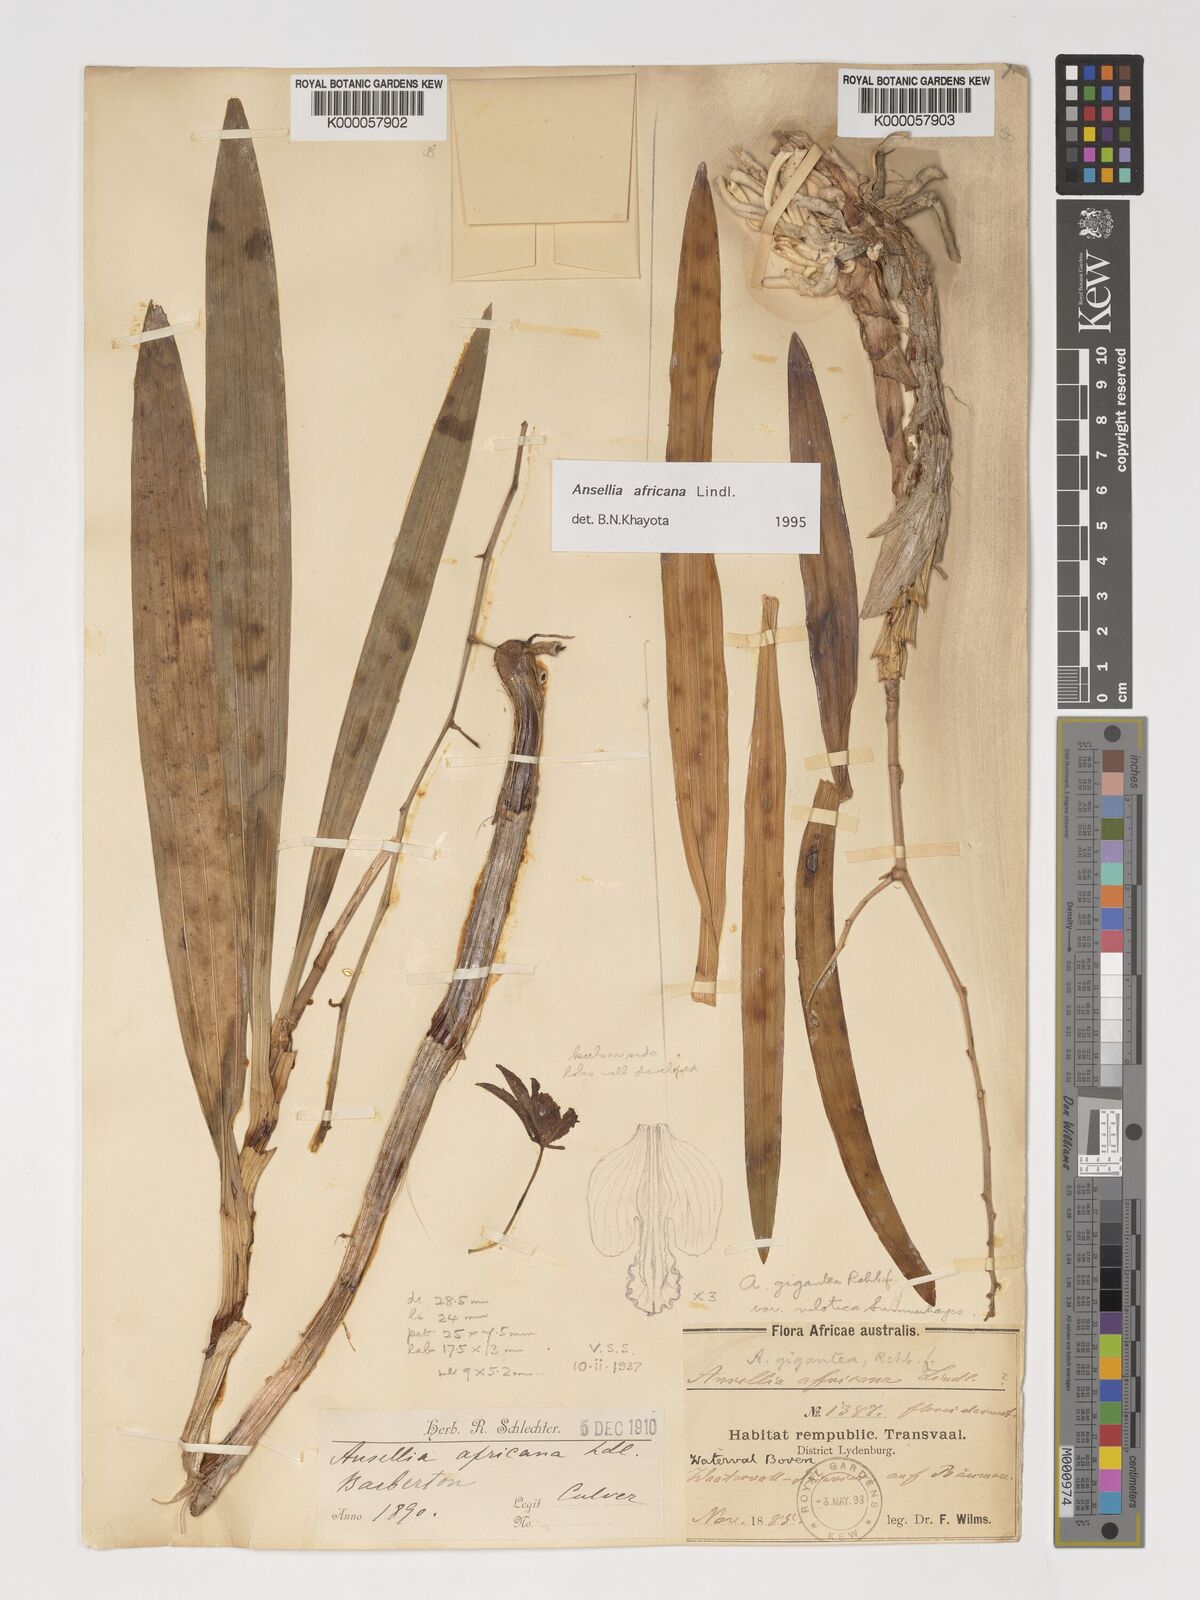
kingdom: Plantae
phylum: Tracheophyta
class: Liliopsida
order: Asparagales
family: Orchidaceae
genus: Ansellia
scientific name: Ansellia africana
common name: African ansellia
